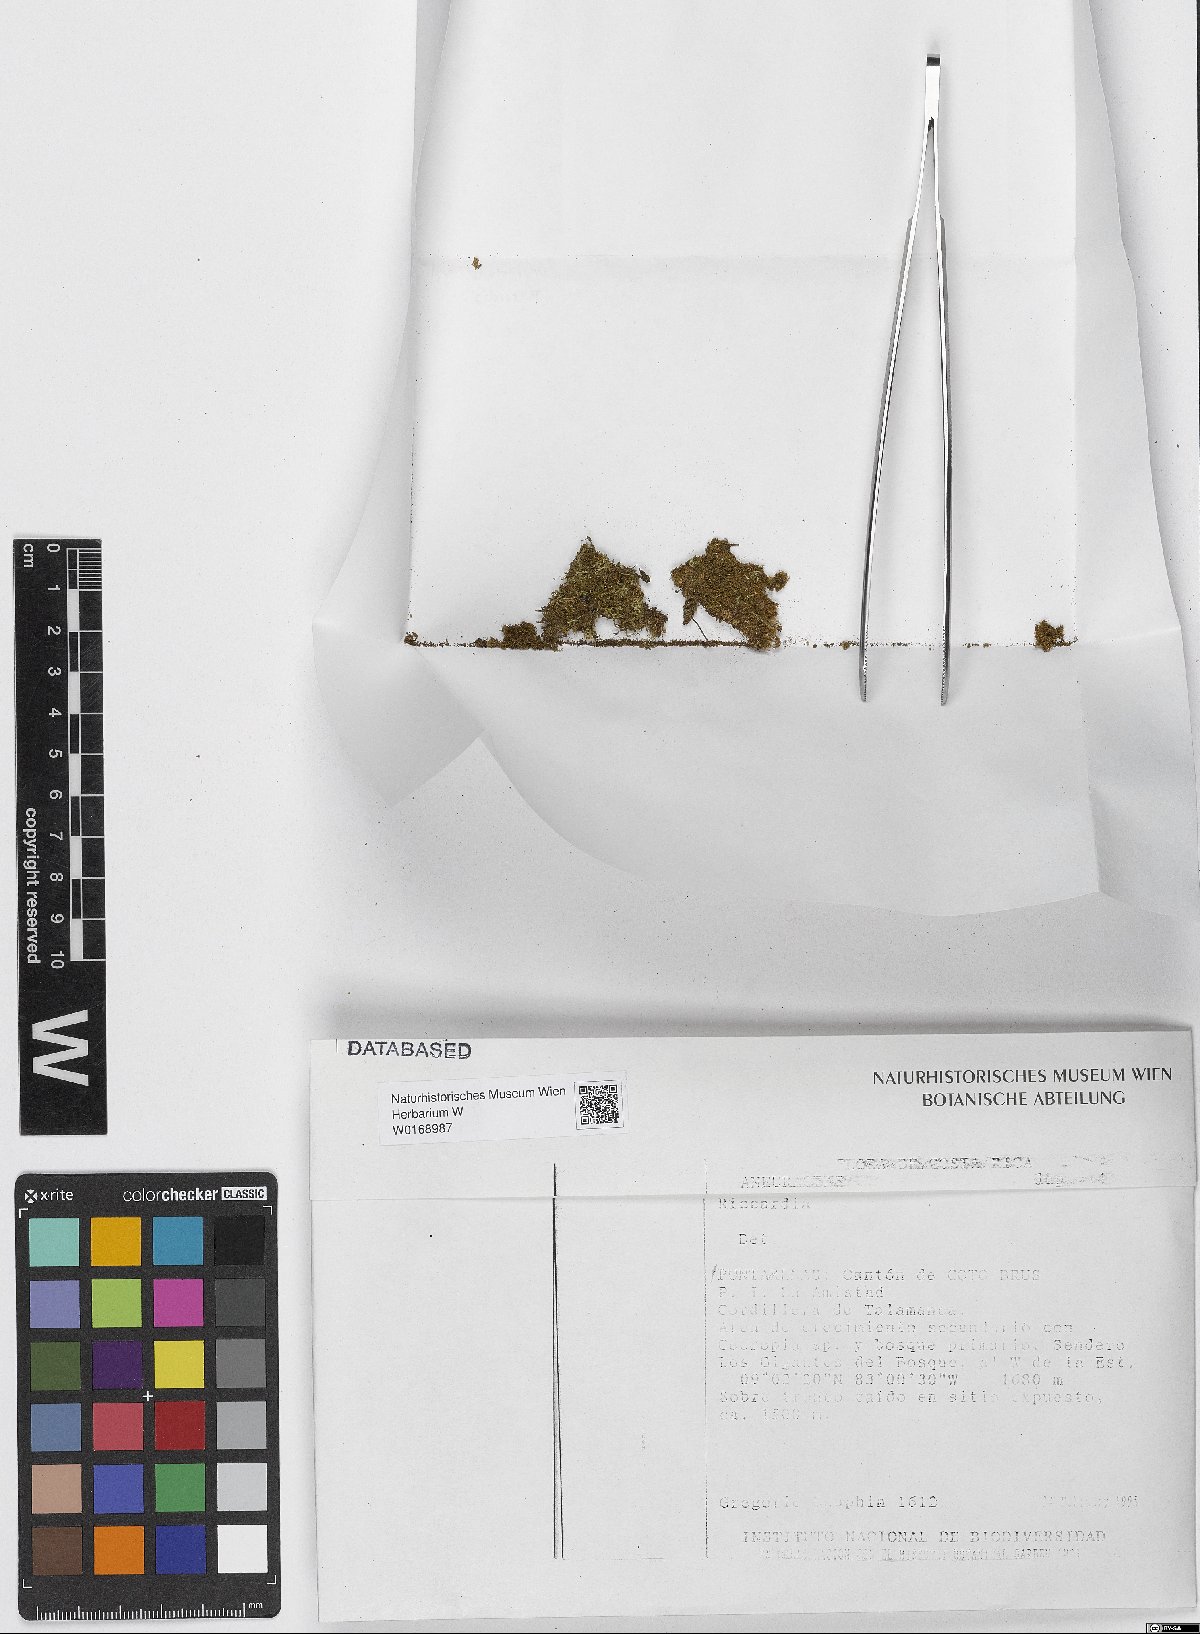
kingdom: Plantae
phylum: Marchantiophyta
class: Jungermanniopsida
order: Metzgeriales
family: Aneuraceae
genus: Riccardia
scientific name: Riccardia
